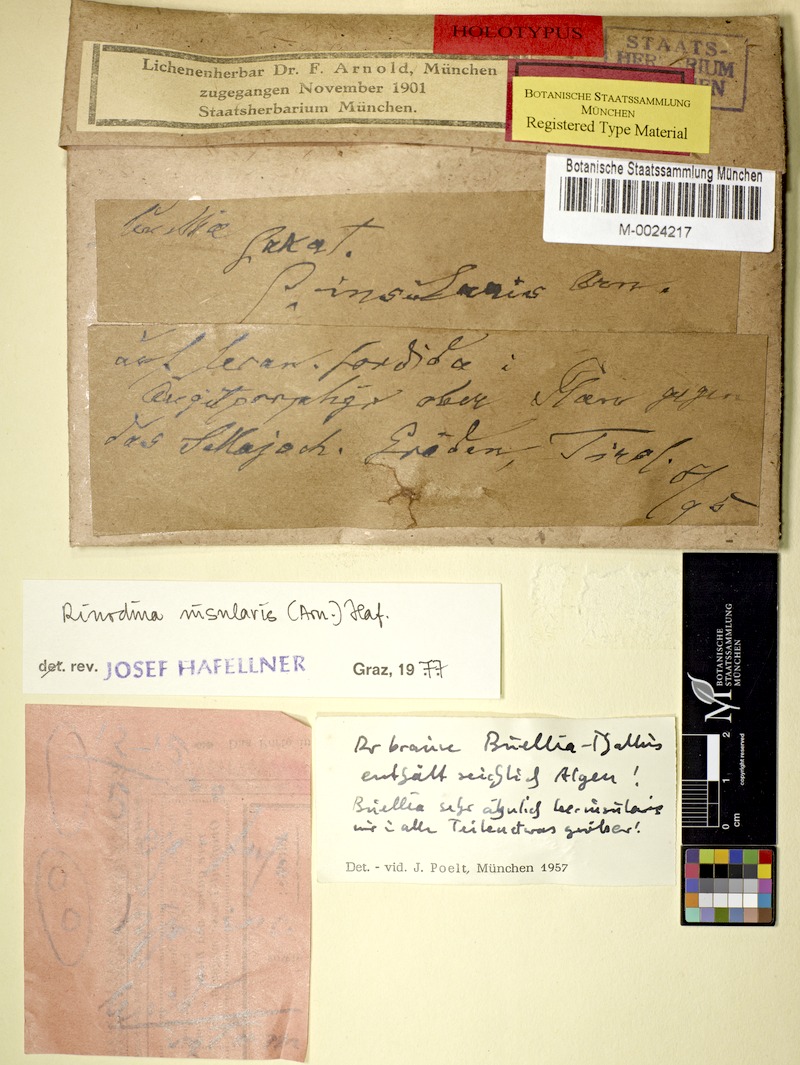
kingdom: Fungi
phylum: Ascomycota
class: Lecanoromycetes
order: Caliciales
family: Caliciaceae
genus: Endohyalina
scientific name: Endohyalina insularis
